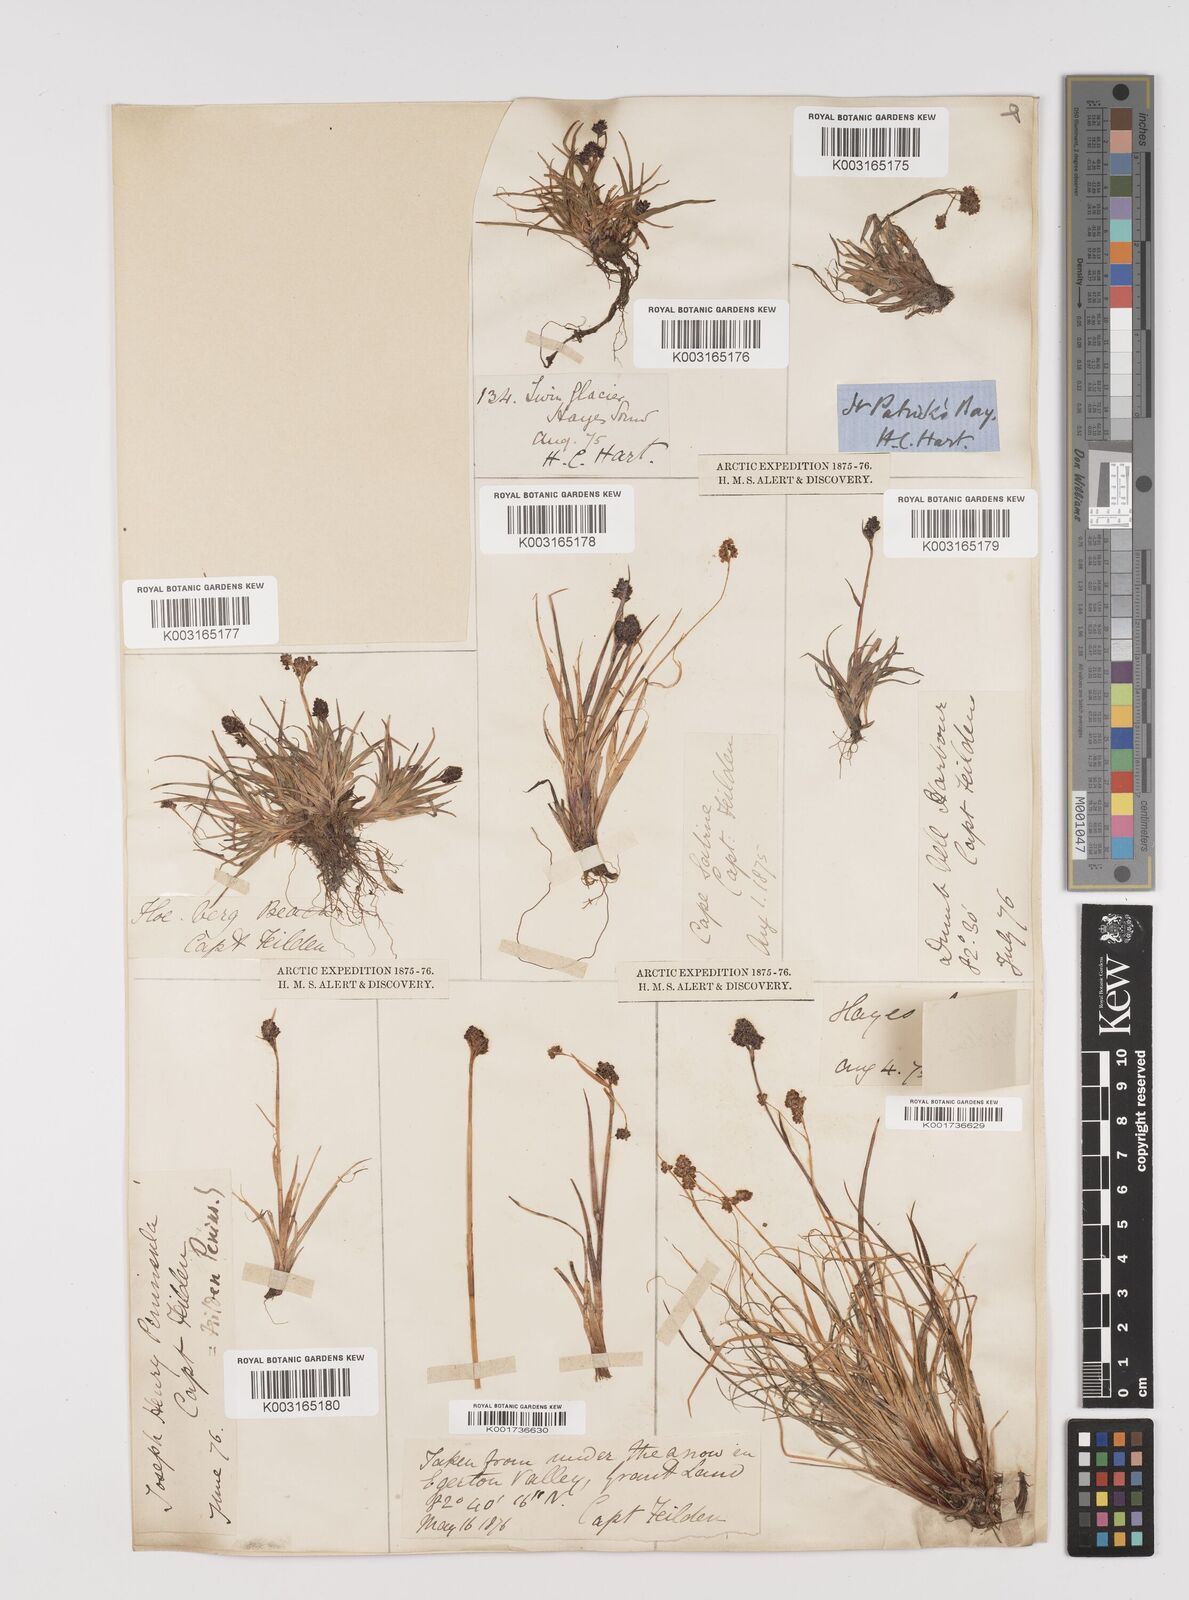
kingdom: Plantae
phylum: Tracheophyta
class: Liliopsida
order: Poales
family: Juncaceae
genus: Luzula
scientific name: Luzula
